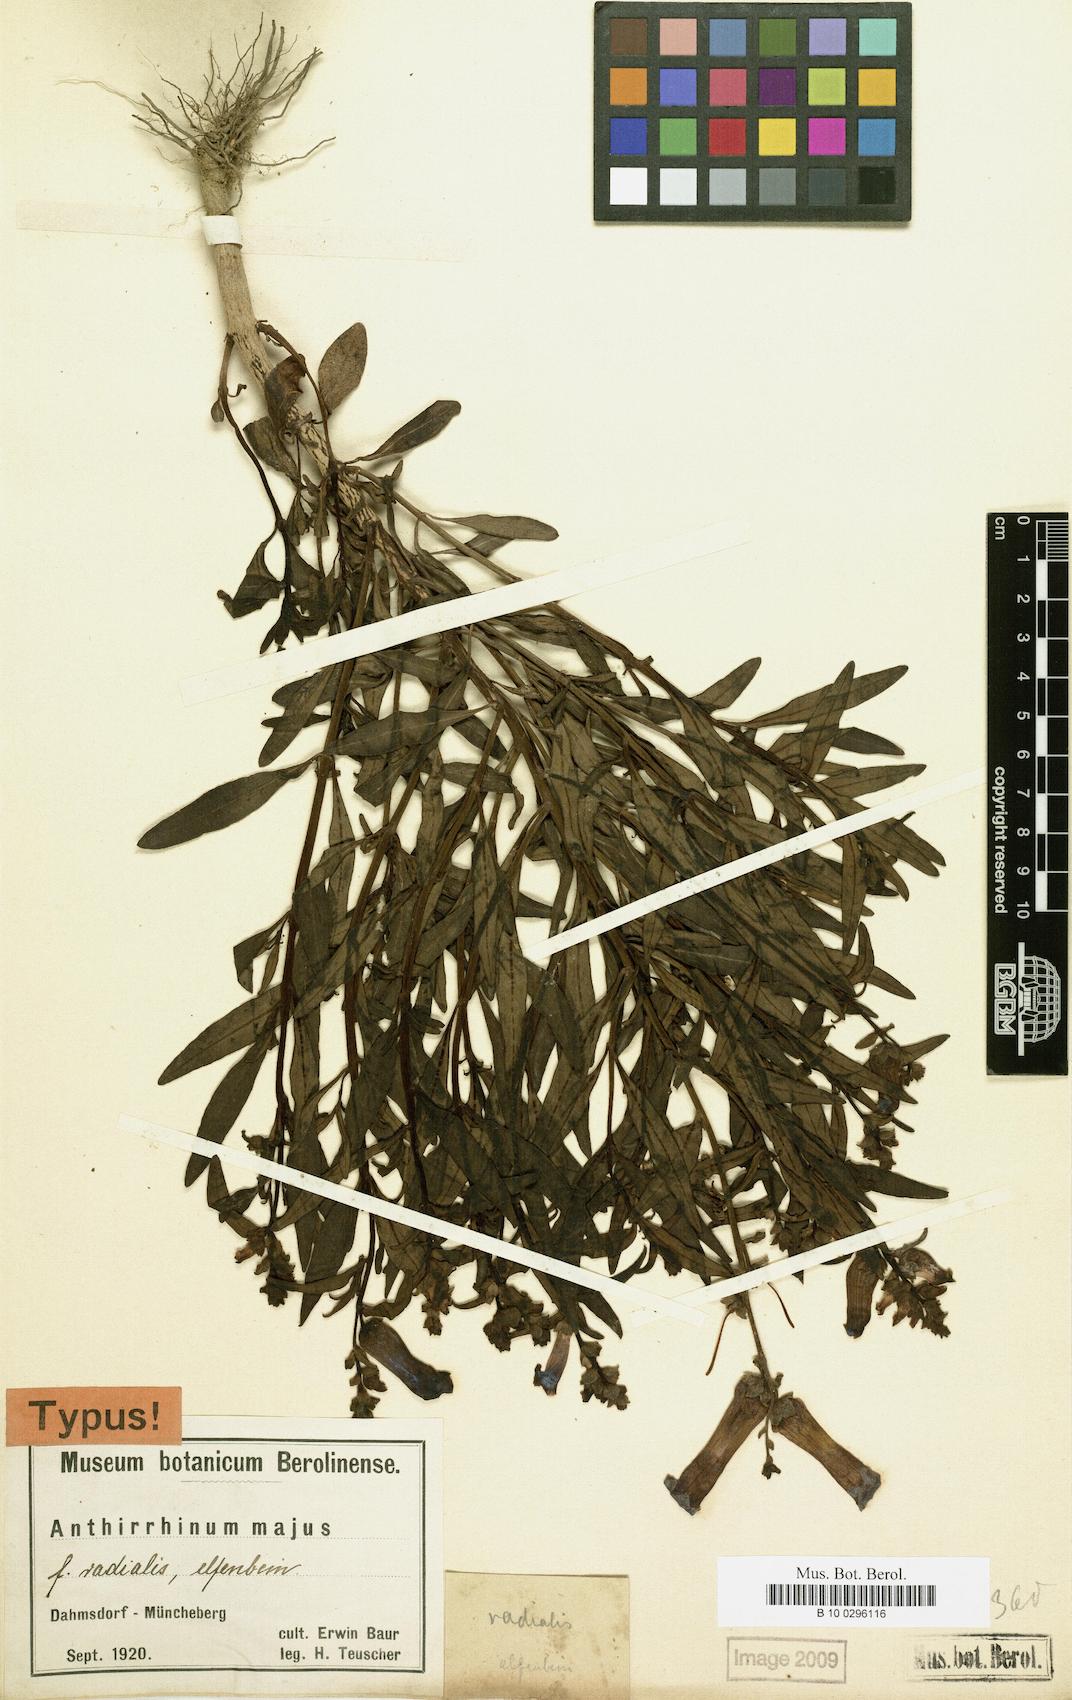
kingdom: Plantae
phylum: Tracheophyta
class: Magnoliopsida
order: Lamiales
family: Plantaginaceae
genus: Antirrhinum
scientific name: Antirrhinum majus
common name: Snapdragon
